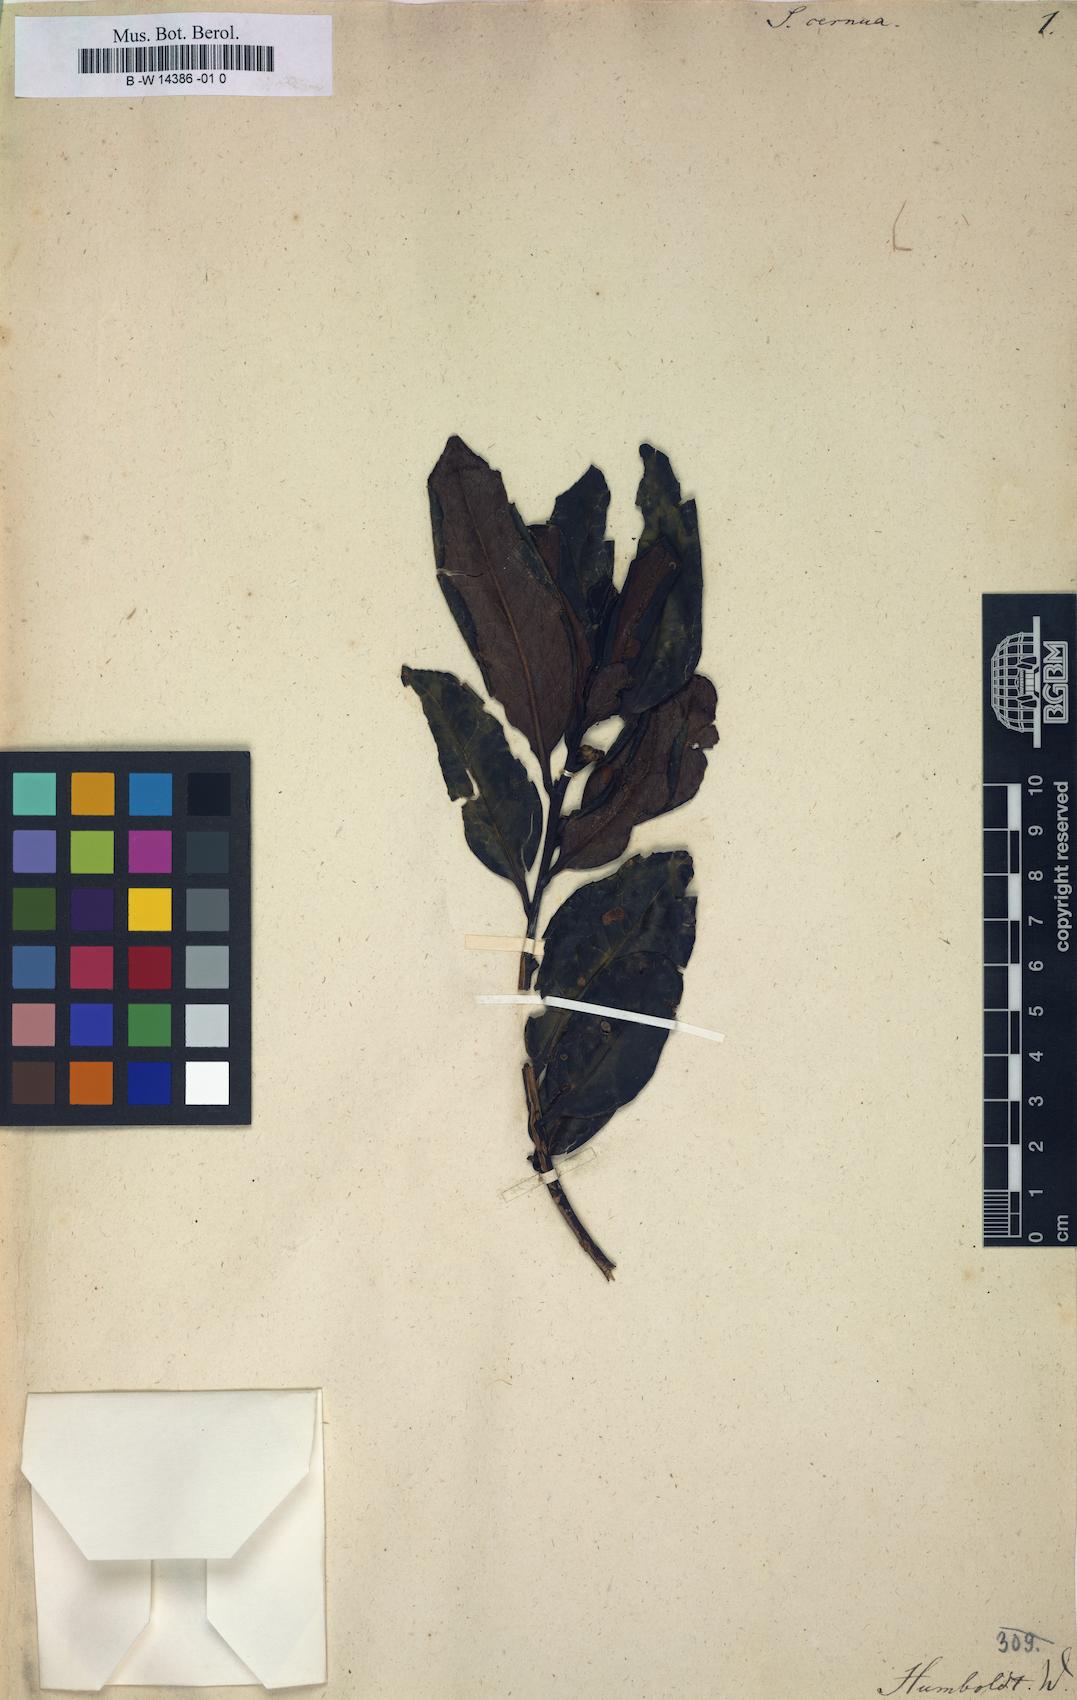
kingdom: Plantae
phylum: Tracheophyta
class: Magnoliopsida
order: Ericales
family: Symplocaceae
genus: Symplocos
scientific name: Symplocos cernua
